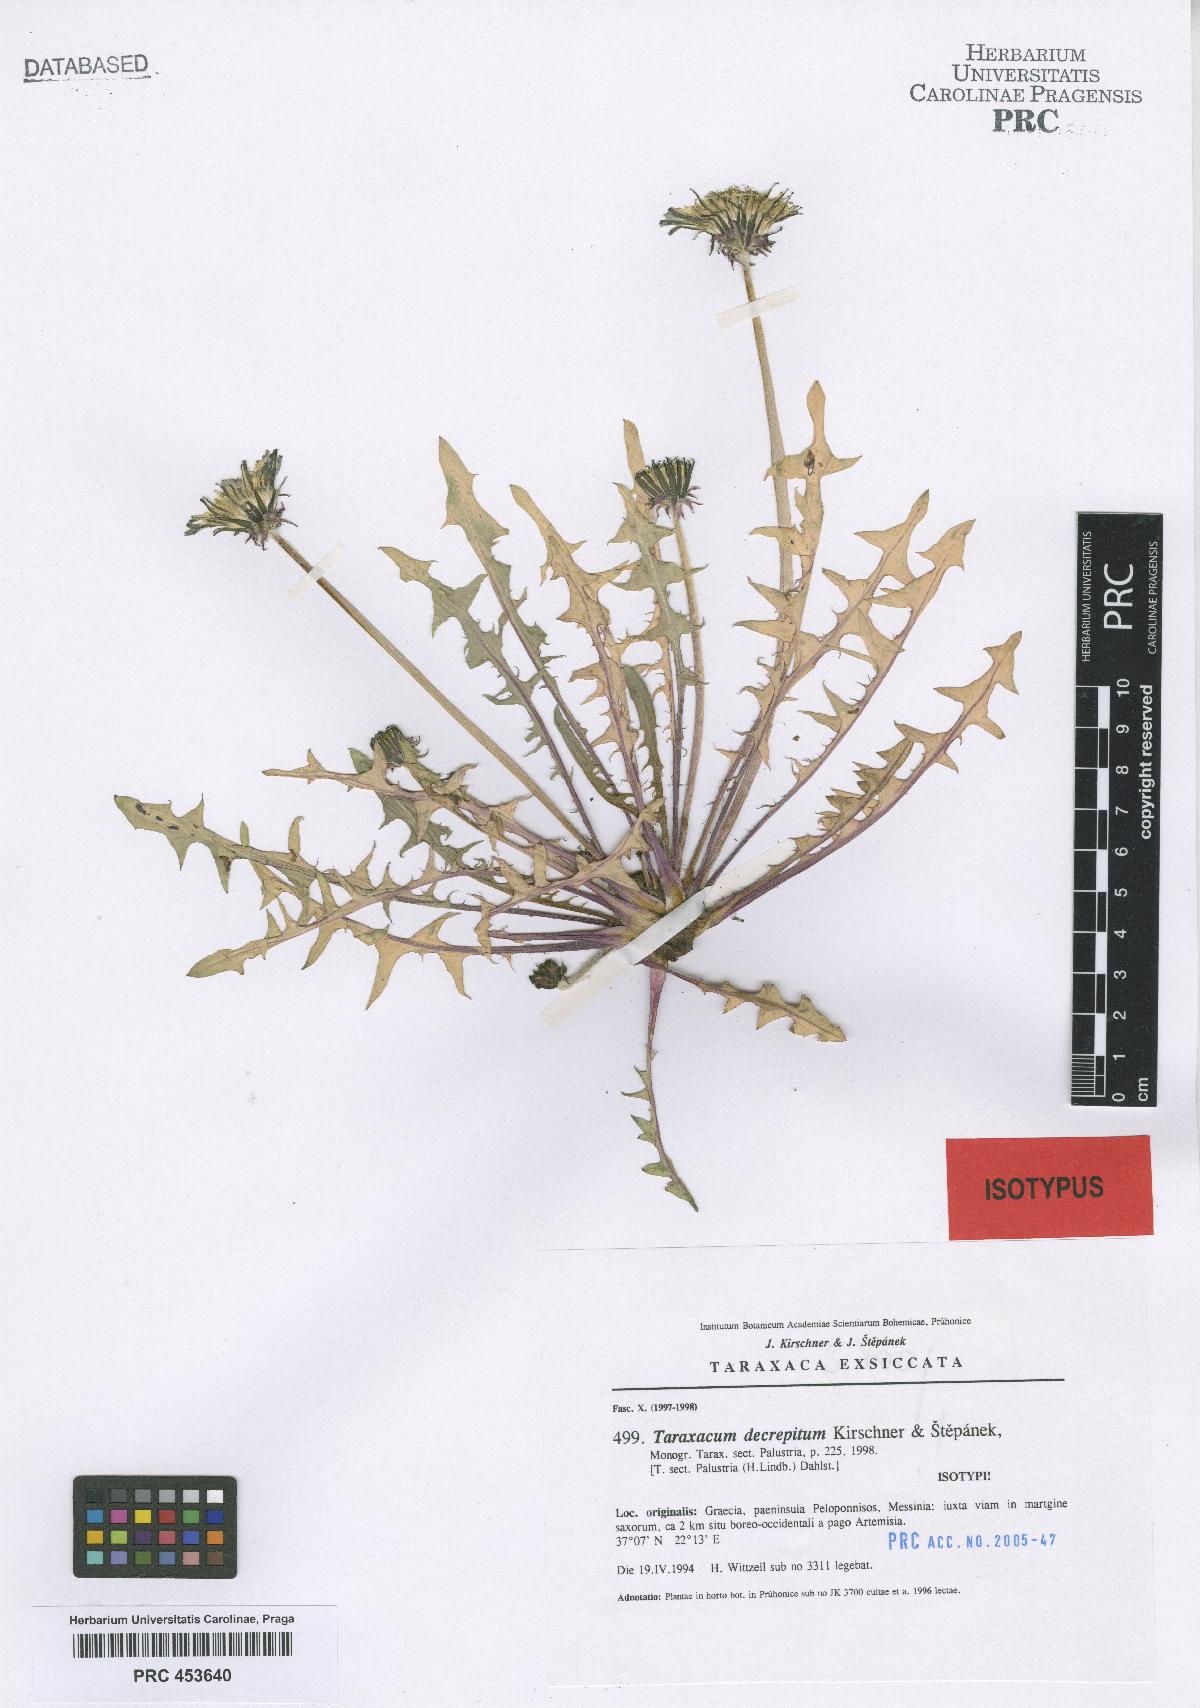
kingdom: Plantae
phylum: Tracheophyta
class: Magnoliopsida
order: Asterales
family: Asteraceae
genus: Taraxacum
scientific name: Taraxacum decrepitum
